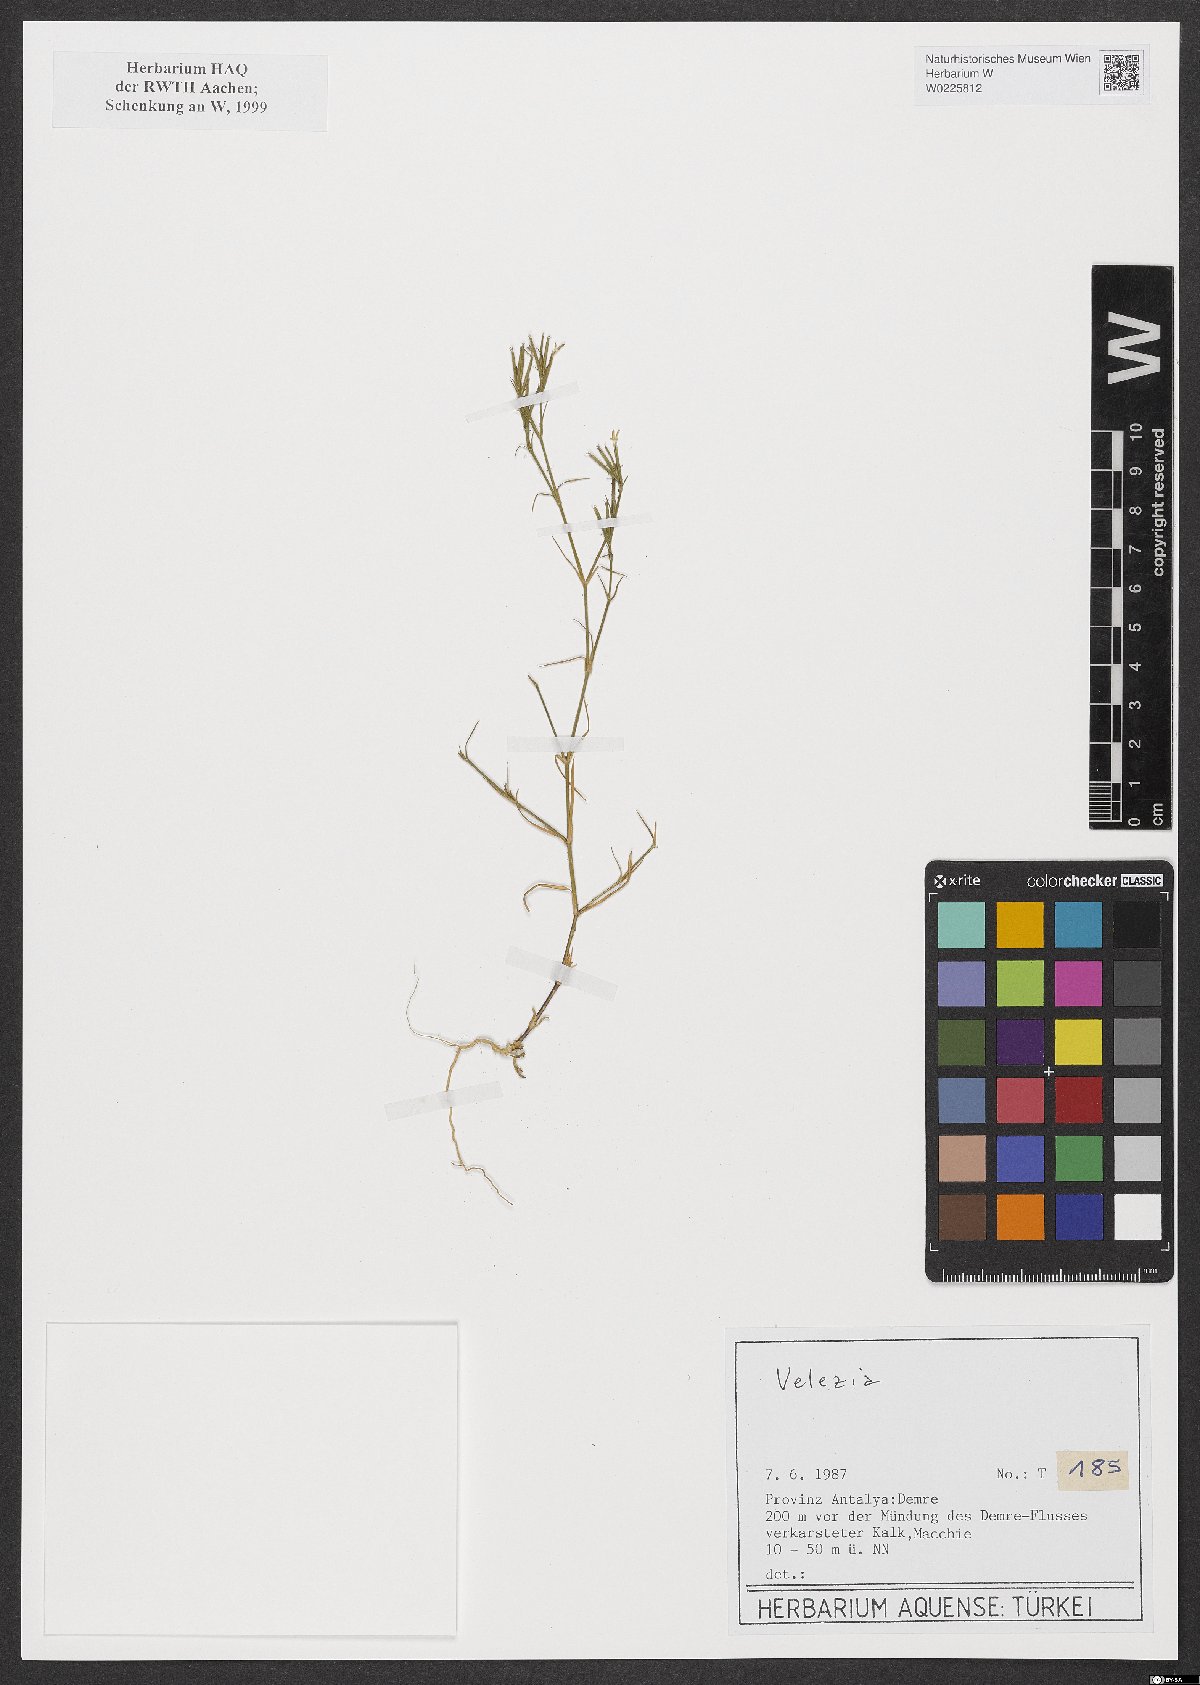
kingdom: Plantae
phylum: Tracheophyta
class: Magnoliopsida
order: Caryophyllales
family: Caryophyllaceae
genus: Dianthus
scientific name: Dianthus
